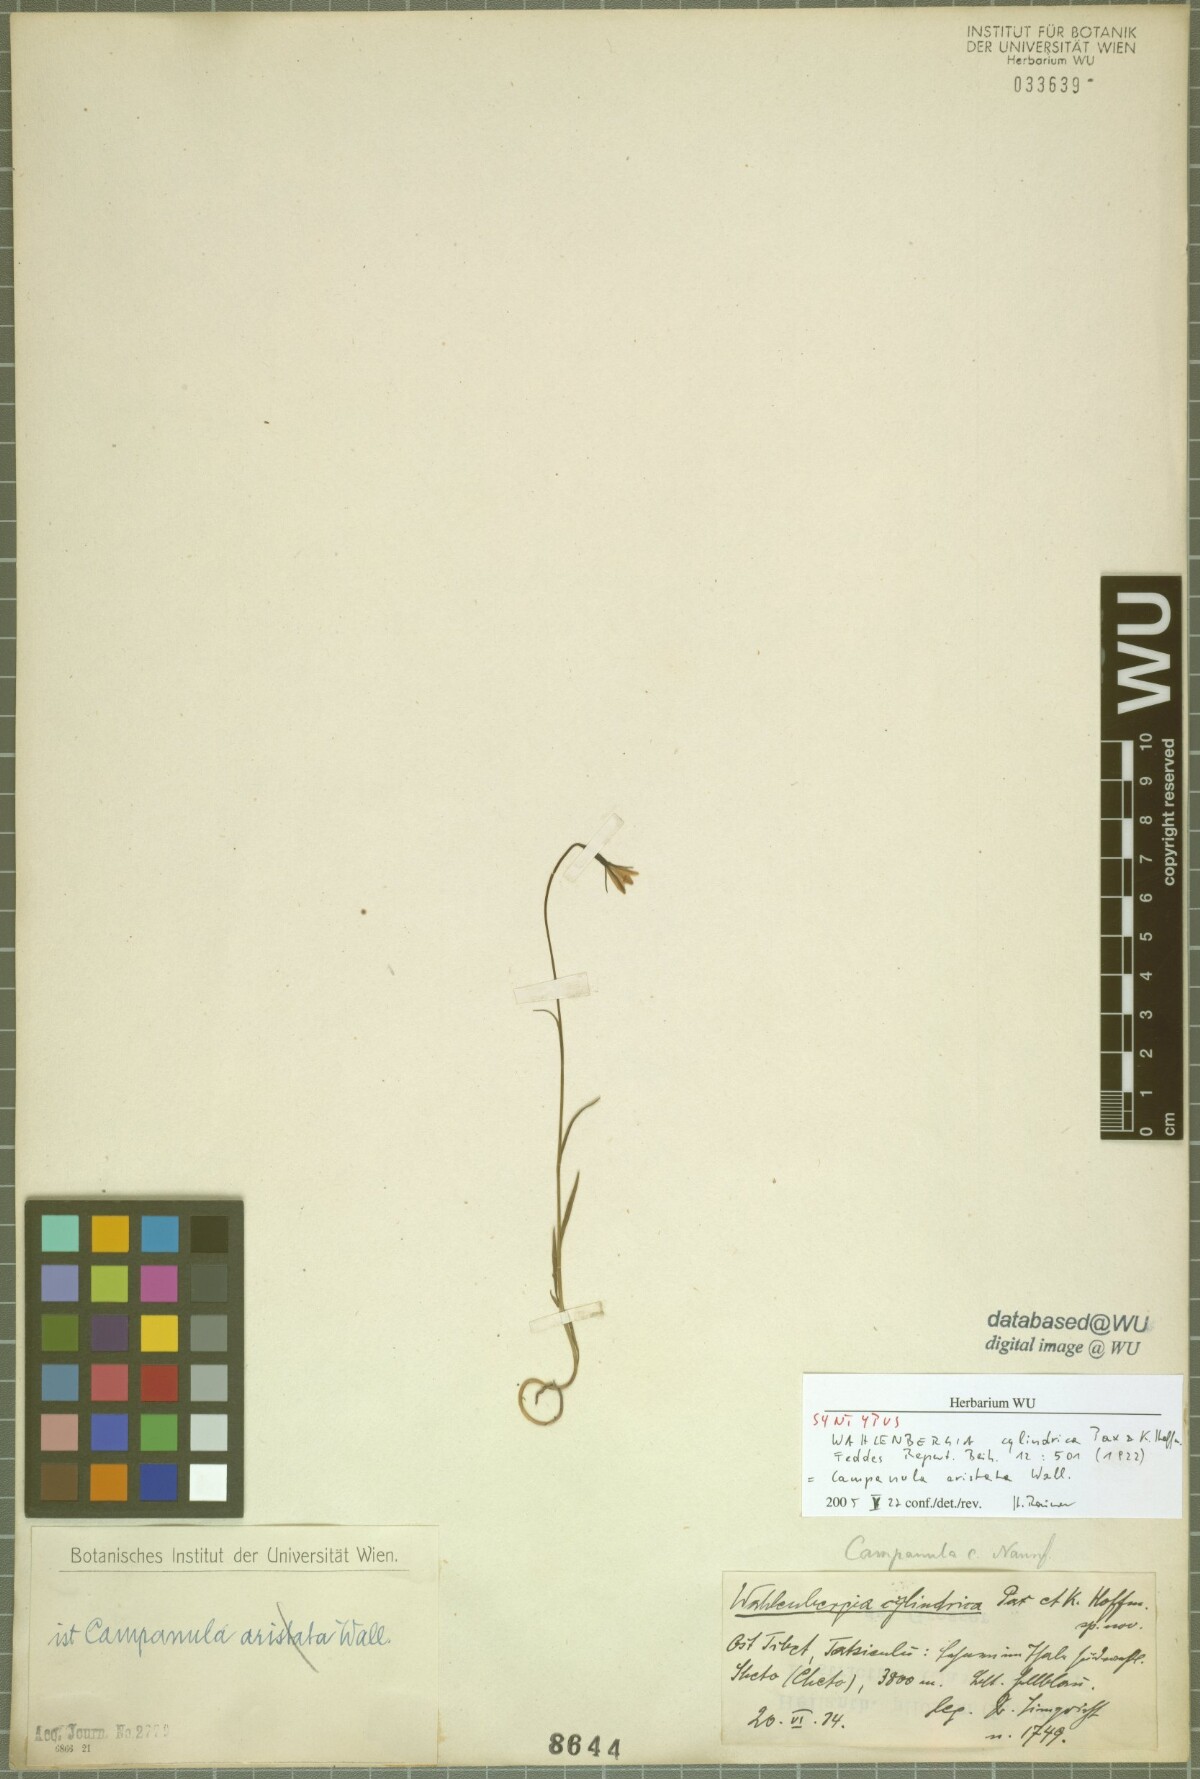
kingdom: Plantae
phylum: Tracheophyta
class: Magnoliopsida
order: Asterales
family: Campanulaceae
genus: Campanula
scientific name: Campanula aristata
